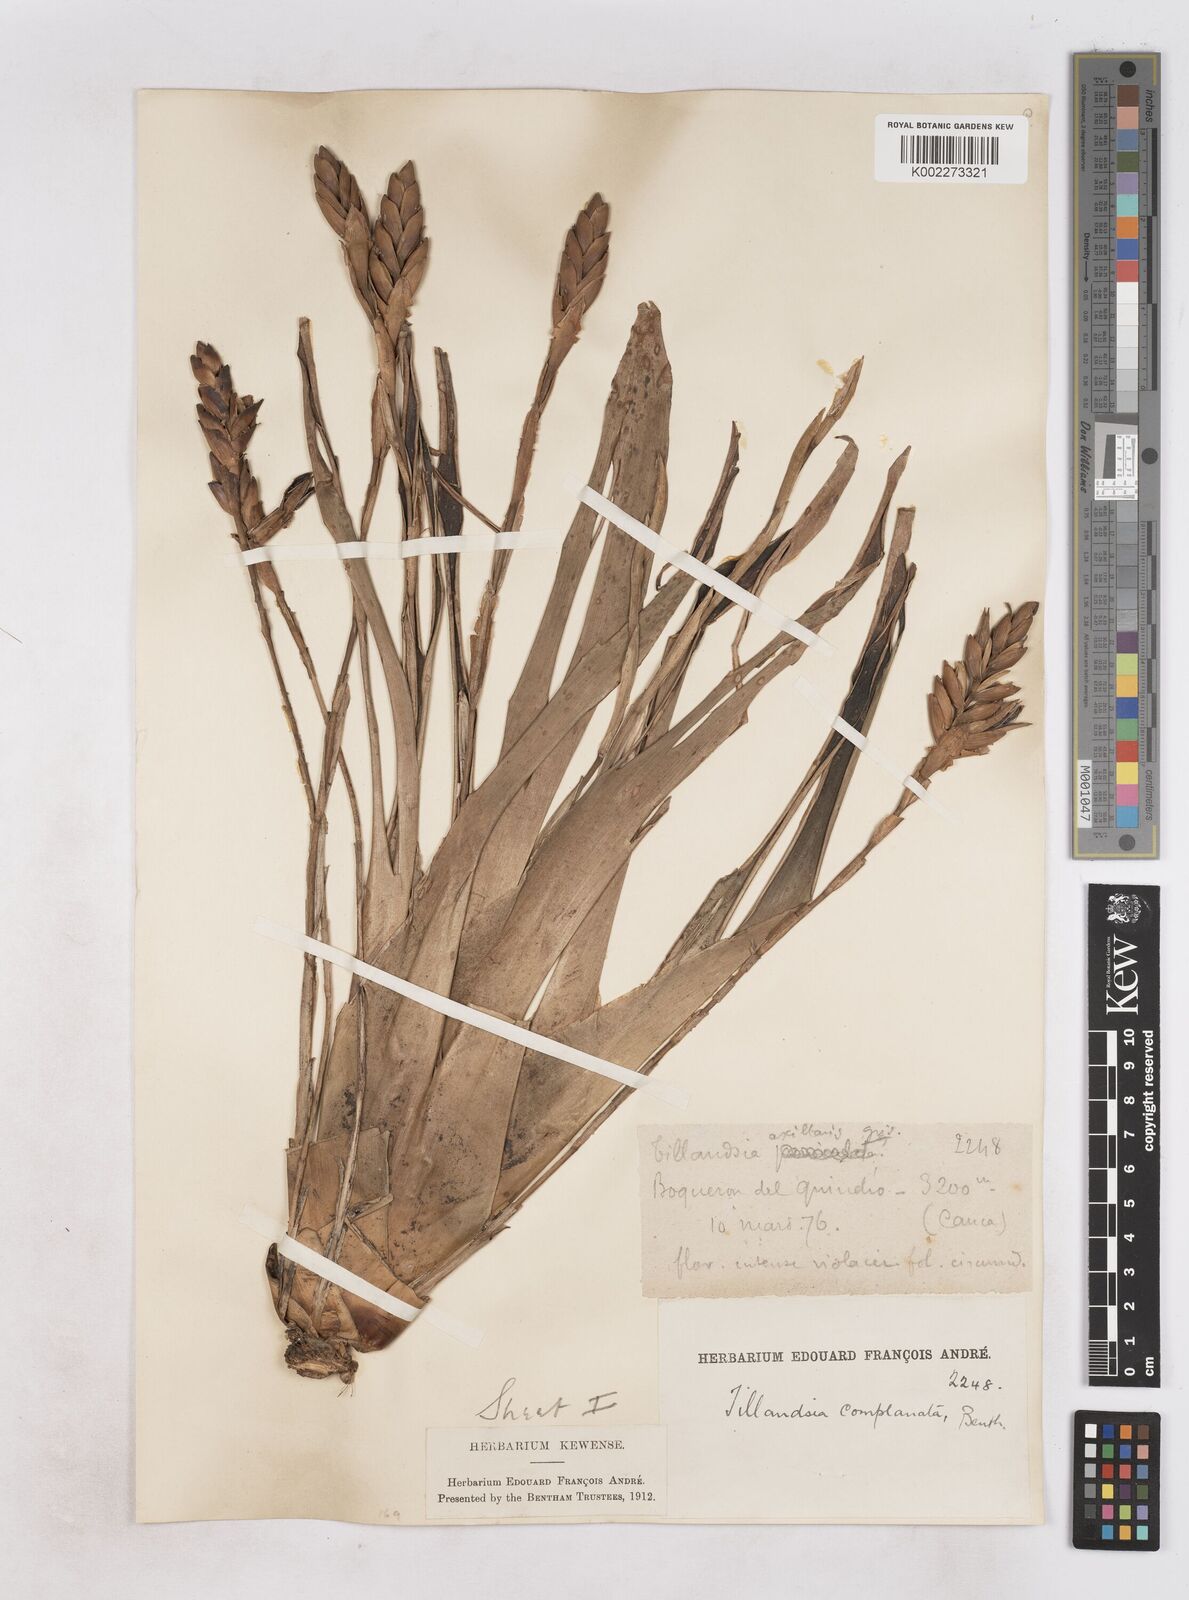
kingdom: Plantae
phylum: Tracheophyta
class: Liliopsida
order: Poales
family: Bromeliaceae
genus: Tillandsia
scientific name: Tillandsia complanata
